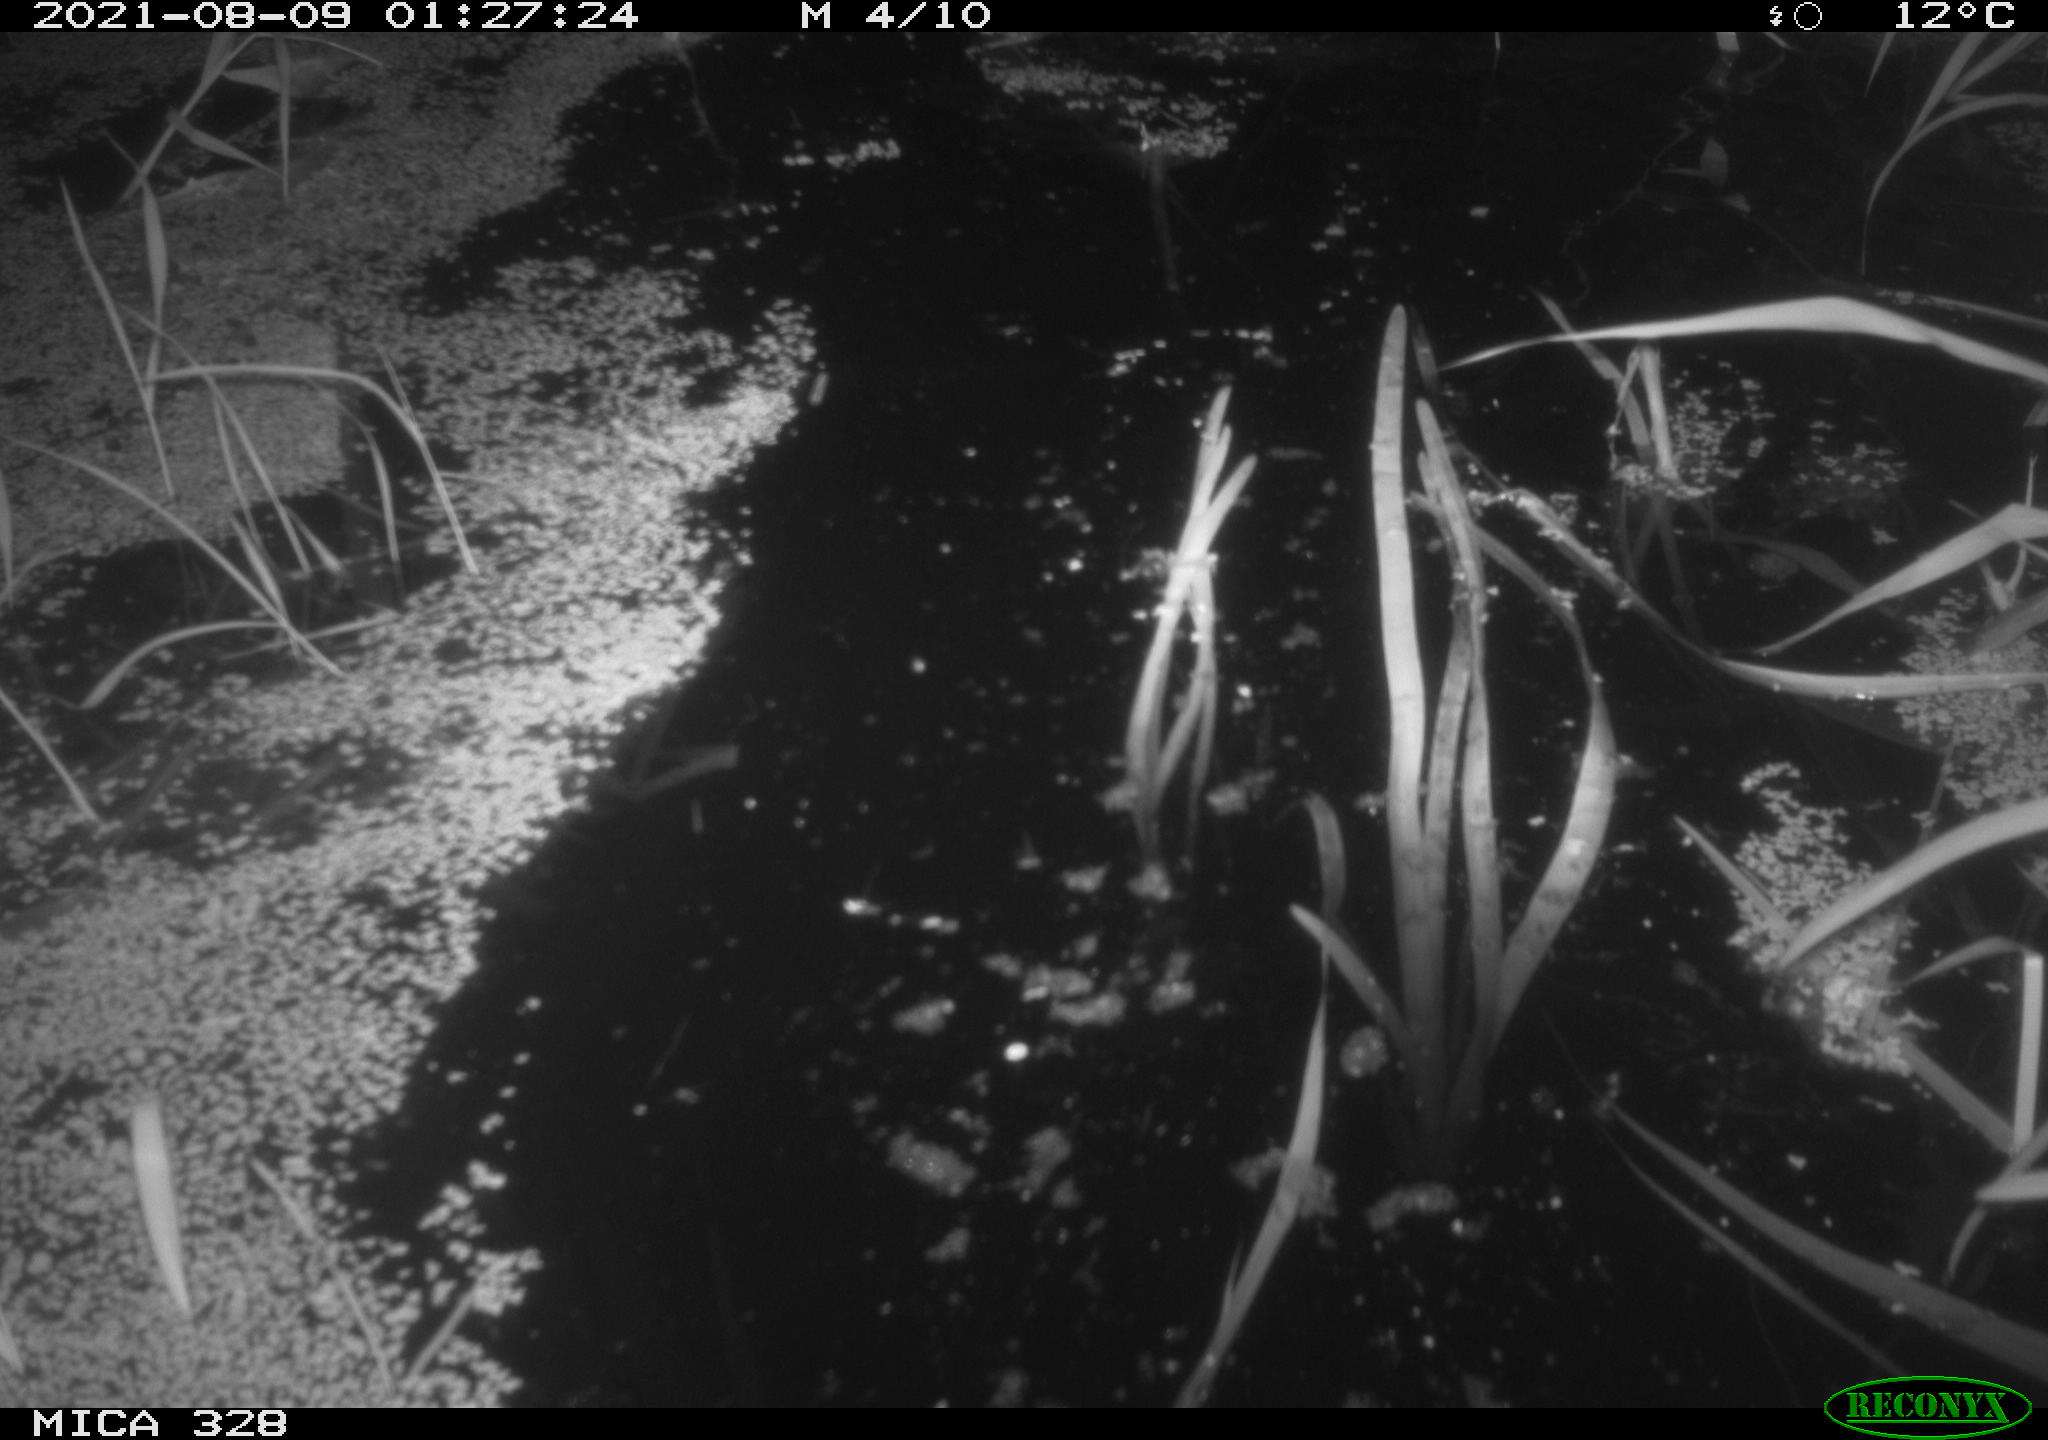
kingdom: Animalia
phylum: Chordata
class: Mammalia
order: Rodentia
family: Cricetidae
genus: Ondatra
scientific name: Ondatra zibethicus
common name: Muskrat
